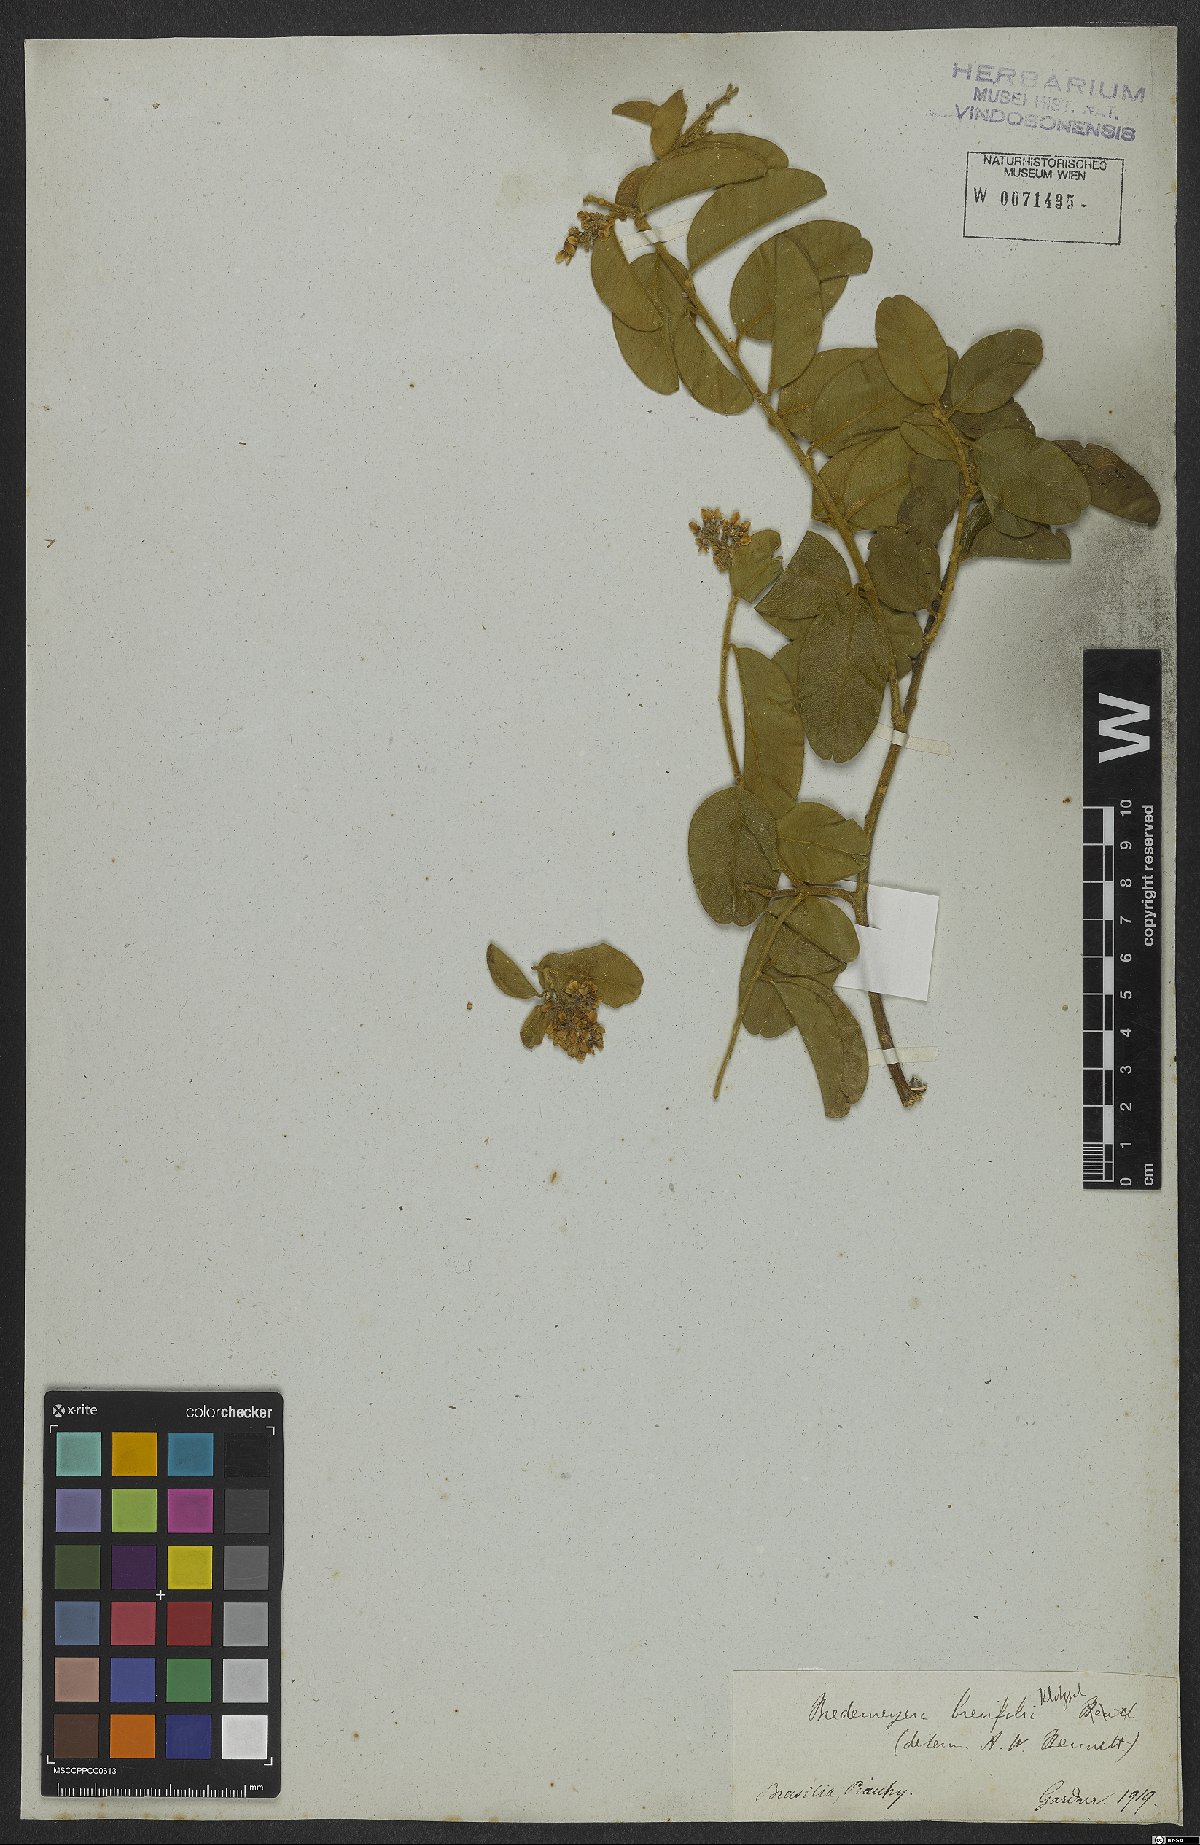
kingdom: Plantae
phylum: Tracheophyta
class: Magnoliopsida
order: Fabales
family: Polygalaceae
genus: Bredemeyera
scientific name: Bredemeyera brevifolia
